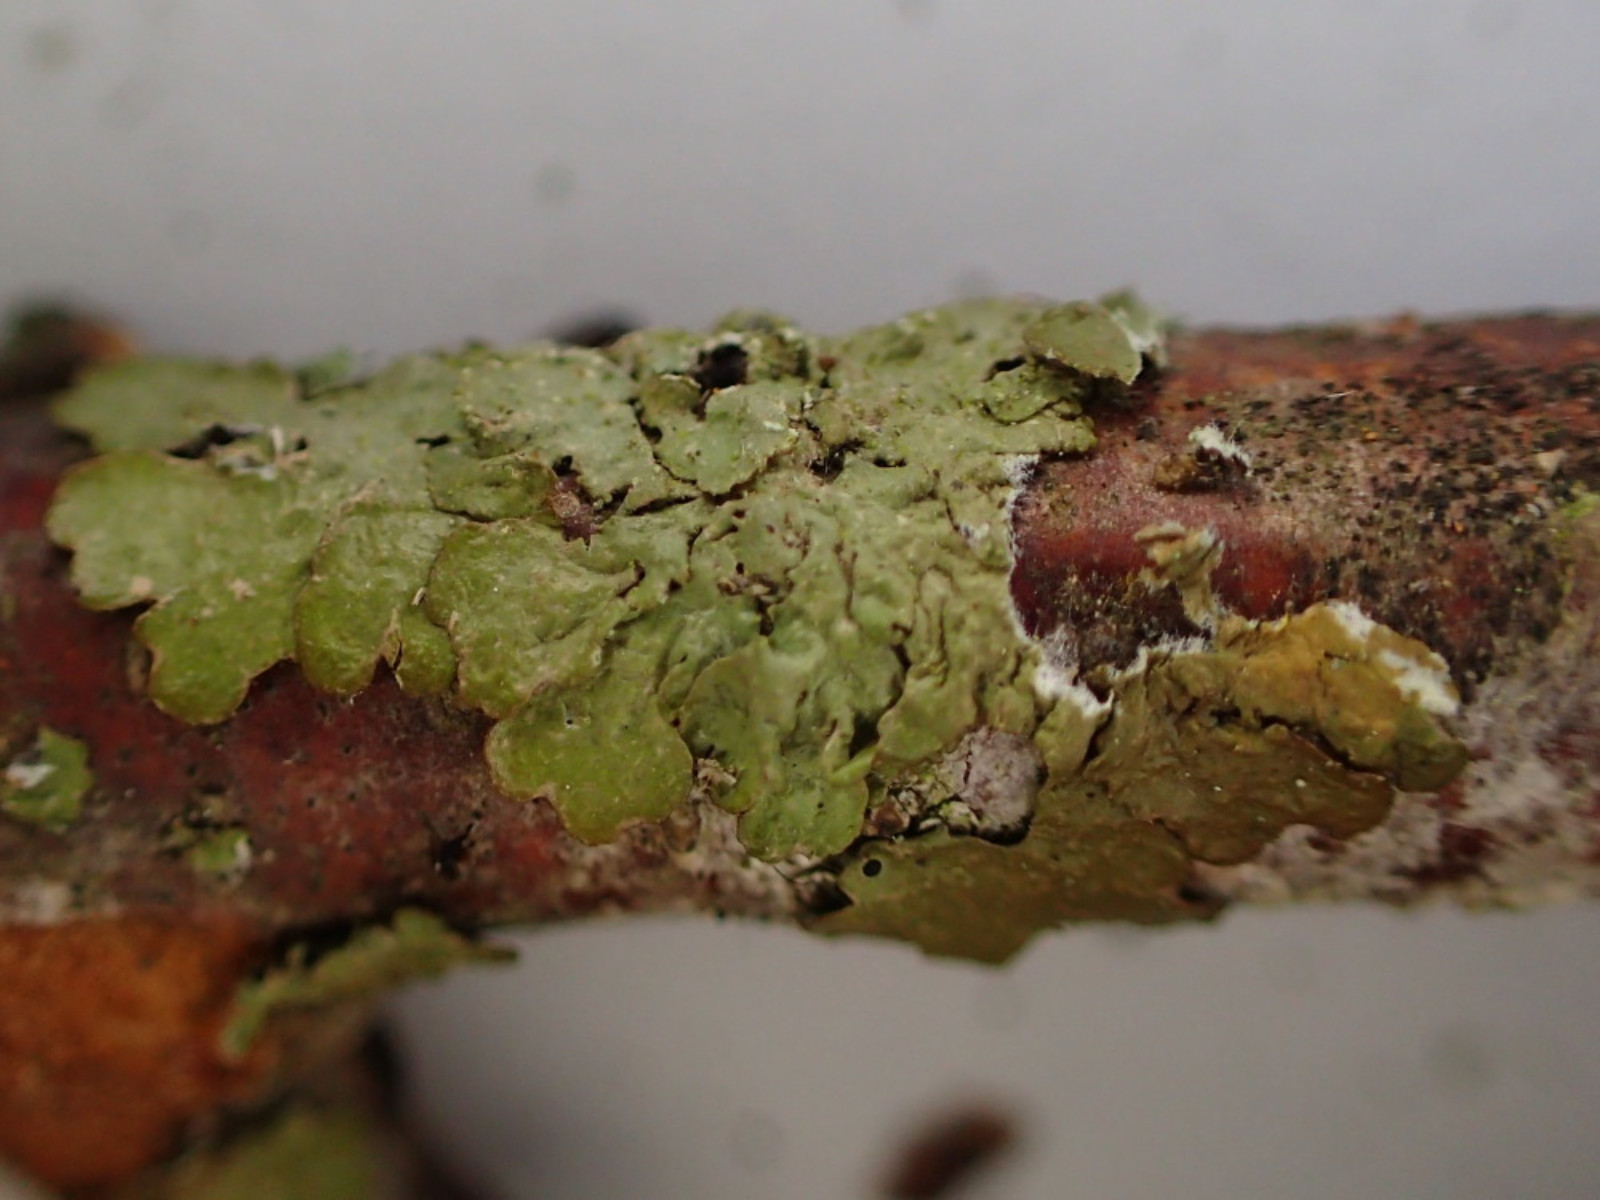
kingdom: Fungi
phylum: Ascomycota
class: Lecanoromycetes
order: Lecanorales
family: Parmeliaceae
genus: Melanelixia
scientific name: Melanelixia subaurifera
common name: guldpudret skållav
